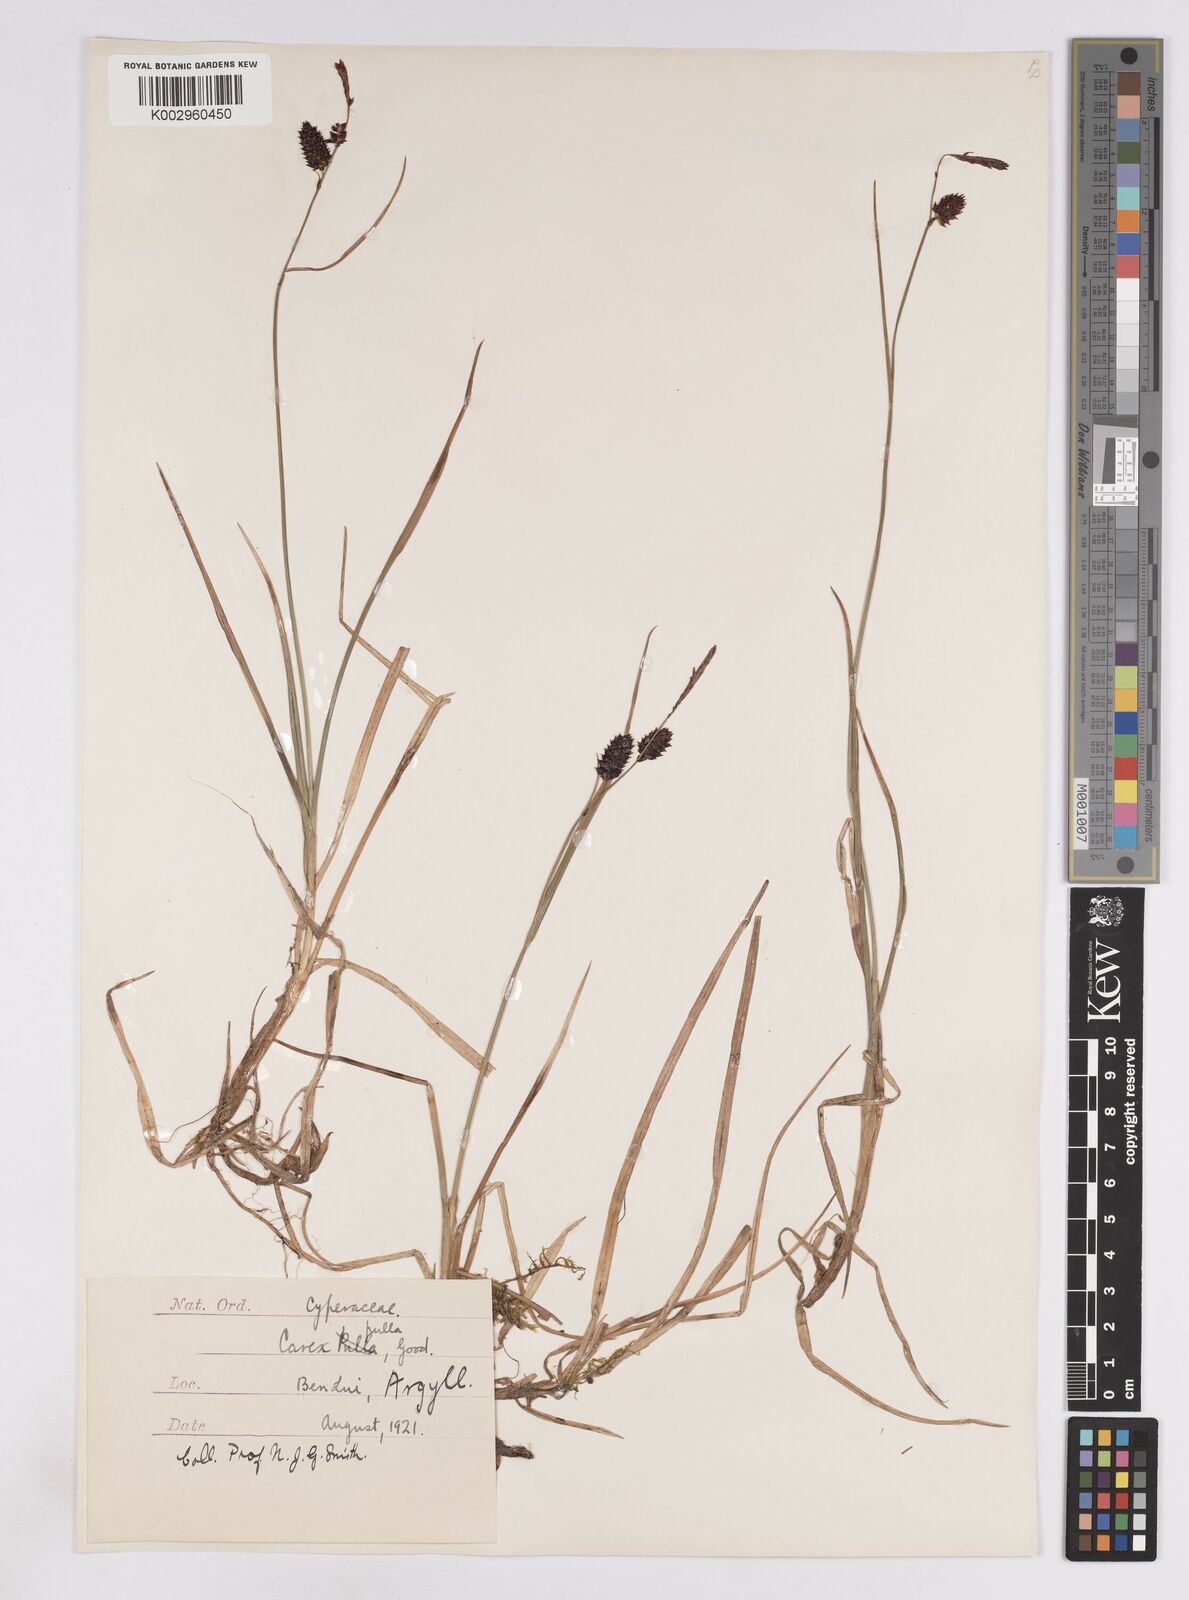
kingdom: Plantae
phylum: Tracheophyta
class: Liliopsida
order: Poales
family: Cyperaceae
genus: Carex
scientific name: Carex saxatilis
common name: Russet sedge
